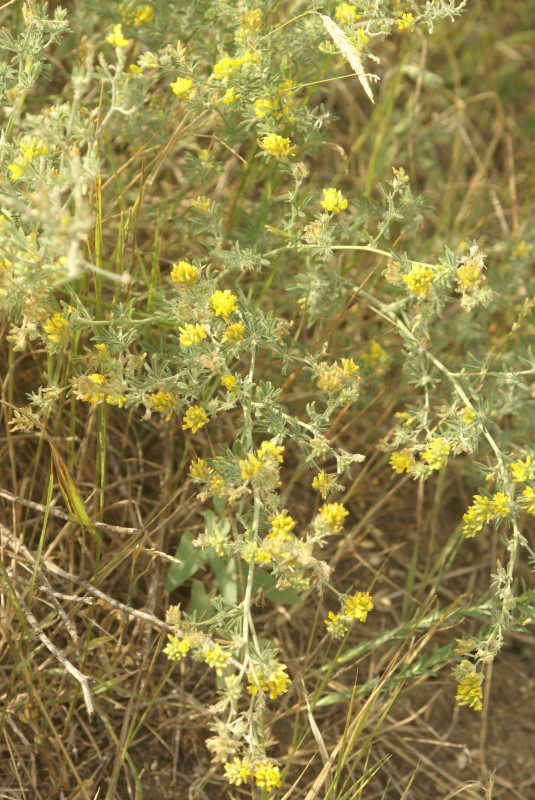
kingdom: Plantae
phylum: Tracheophyta
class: Magnoliopsida
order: Fabales
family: Fabaceae
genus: Medicago
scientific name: Medicago falcata
